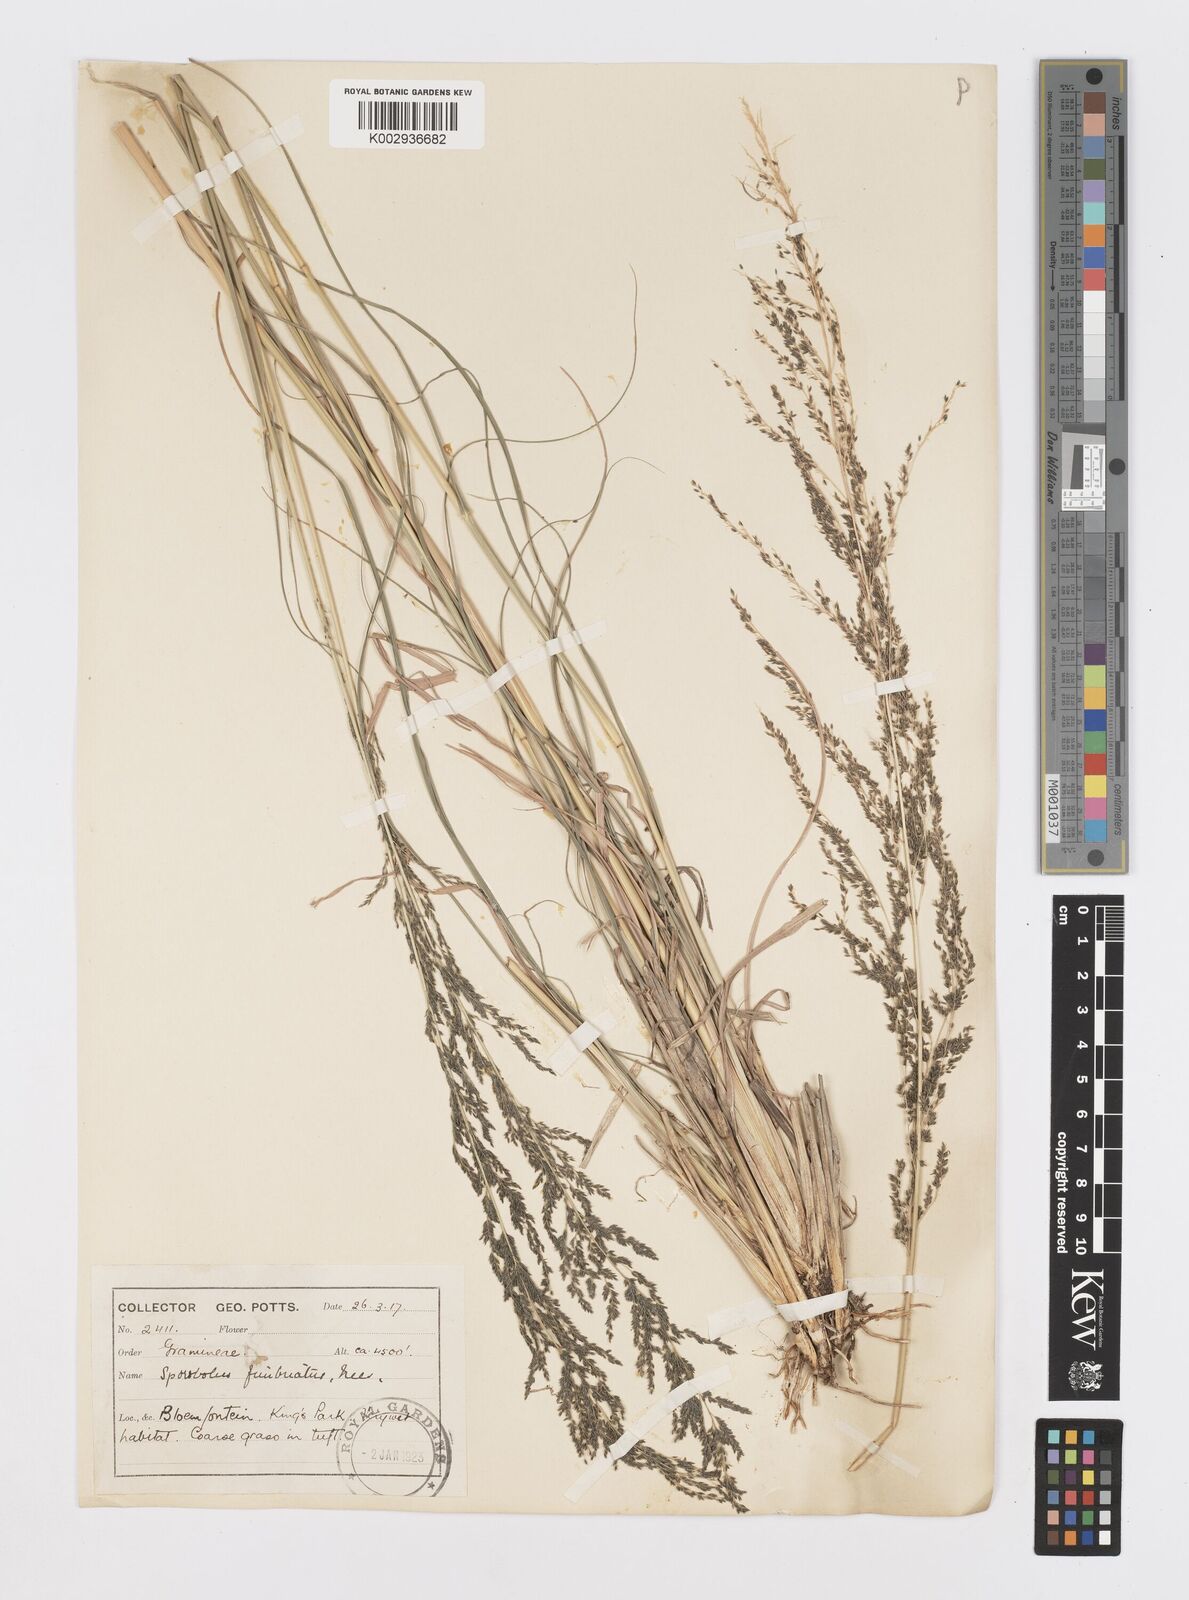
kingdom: Plantae
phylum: Tracheophyta
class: Liliopsida
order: Poales
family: Poaceae
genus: Sporobolus
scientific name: Sporobolus fimbriatus
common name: Fringed dropseed
